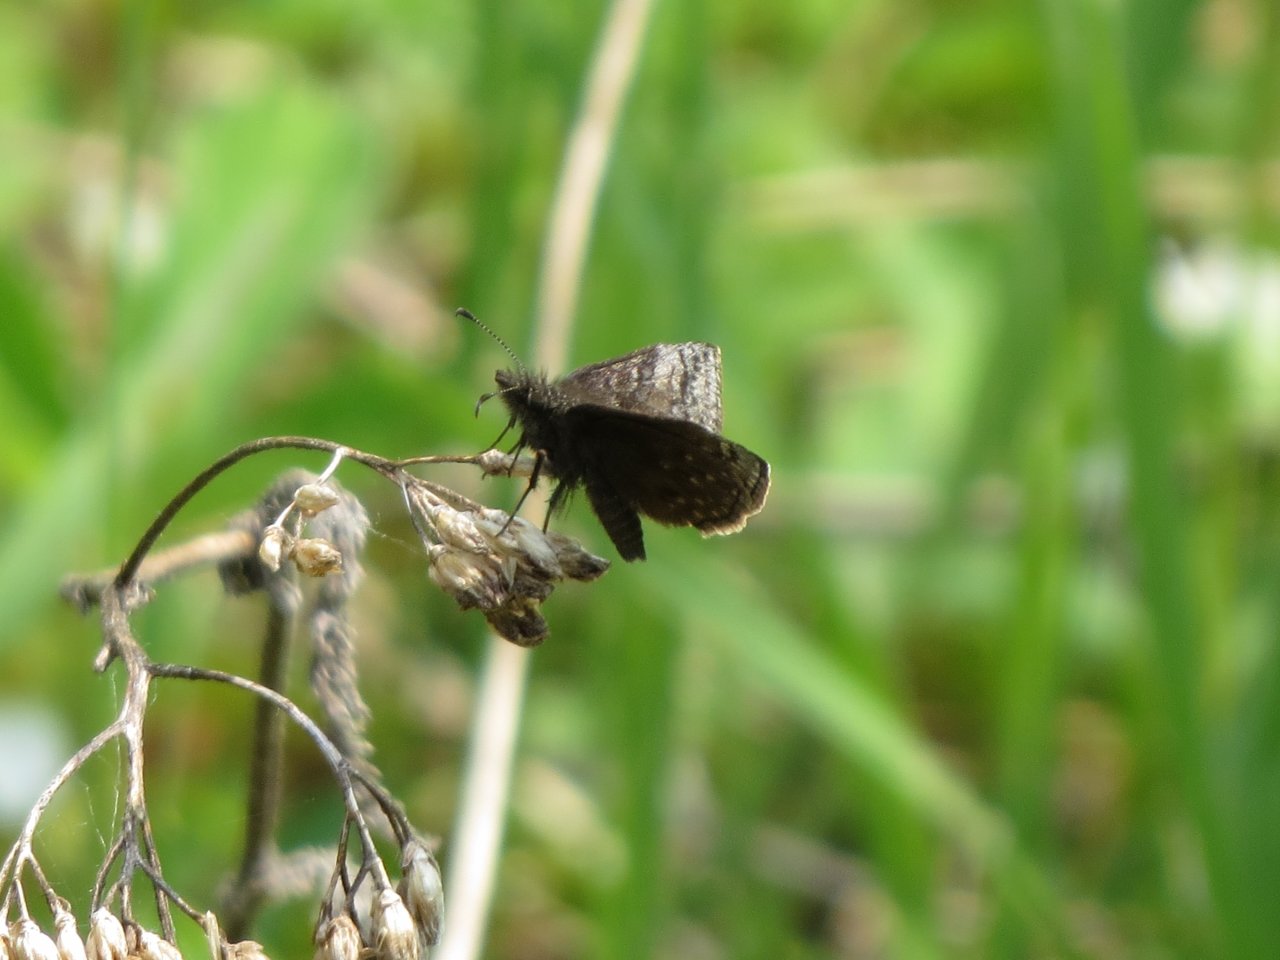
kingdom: Animalia
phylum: Arthropoda
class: Insecta
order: Lepidoptera
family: Hesperiidae
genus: Erynnis
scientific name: Erynnis icelus
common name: Dreamy Duskywing
